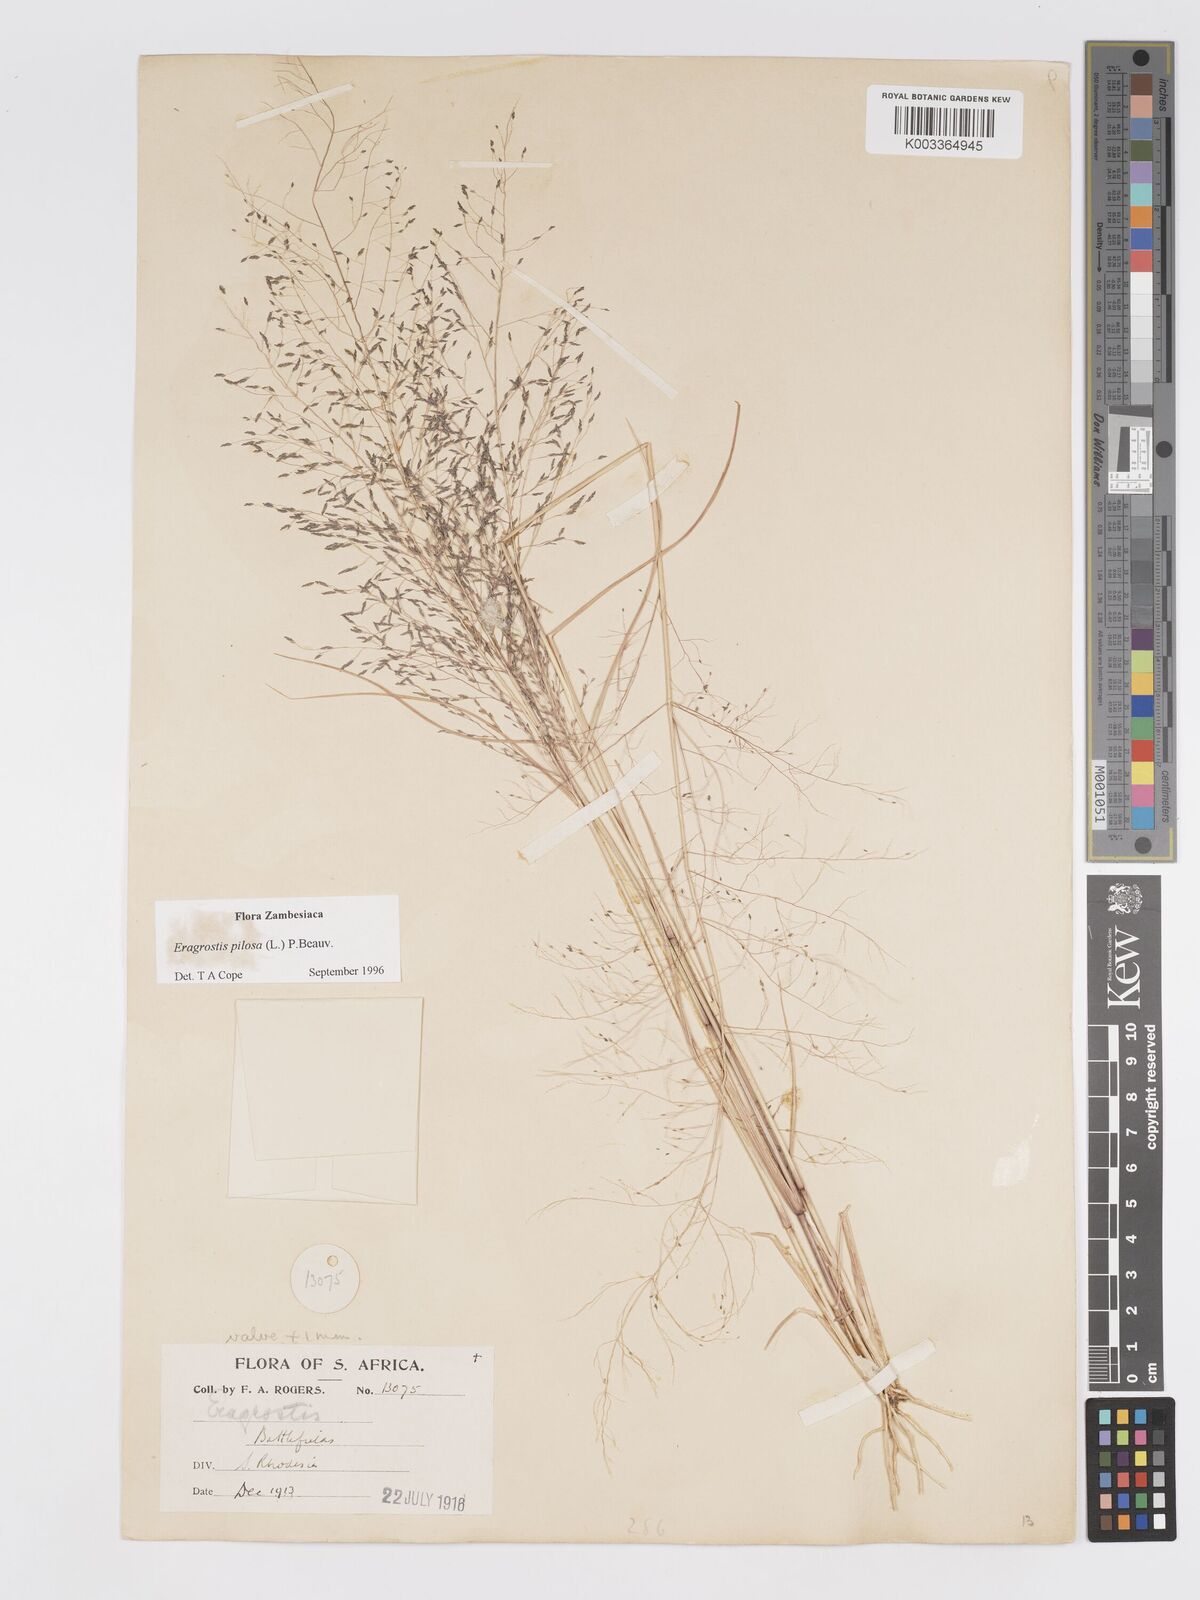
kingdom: Plantae
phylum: Tracheophyta
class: Liliopsida
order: Poales
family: Poaceae
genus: Eragrostis
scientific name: Eragrostis pilosa
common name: Indian lovegrass
